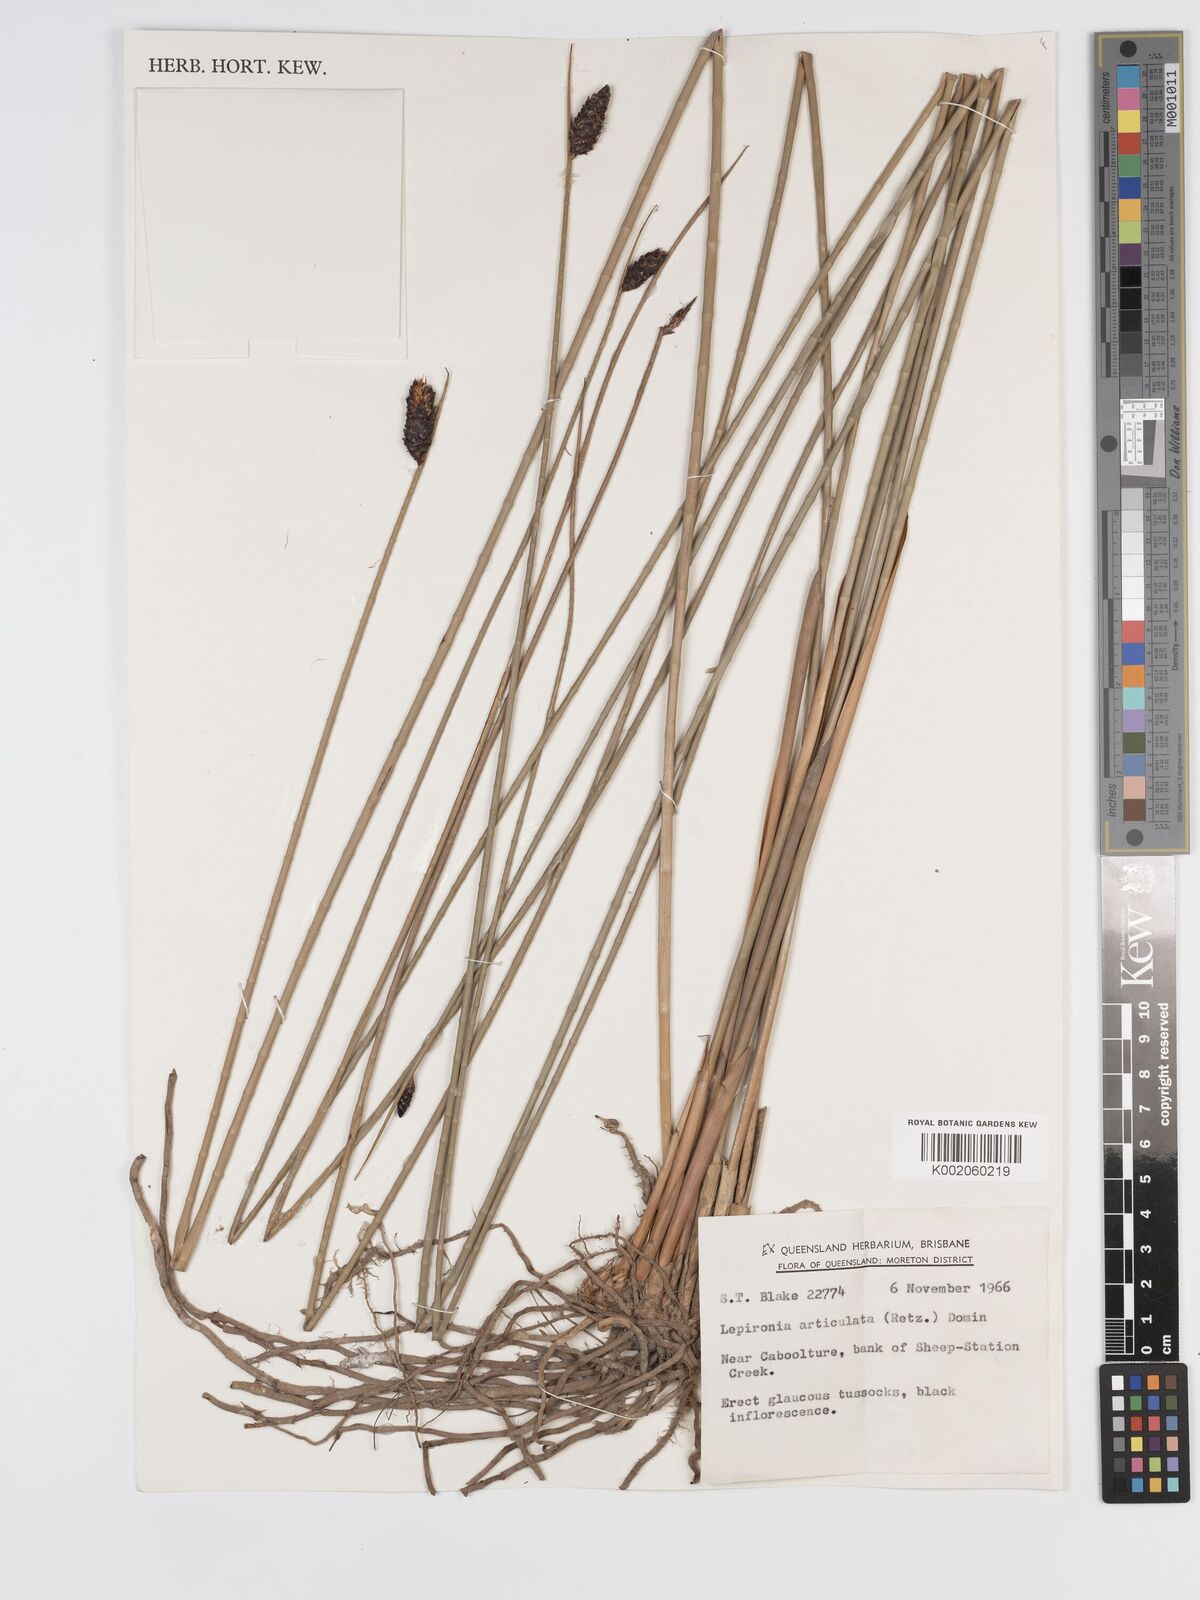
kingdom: Plantae
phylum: Tracheophyta
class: Liliopsida
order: Poales
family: Cyperaceae
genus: Lepironia
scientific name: Lepironia articulata
